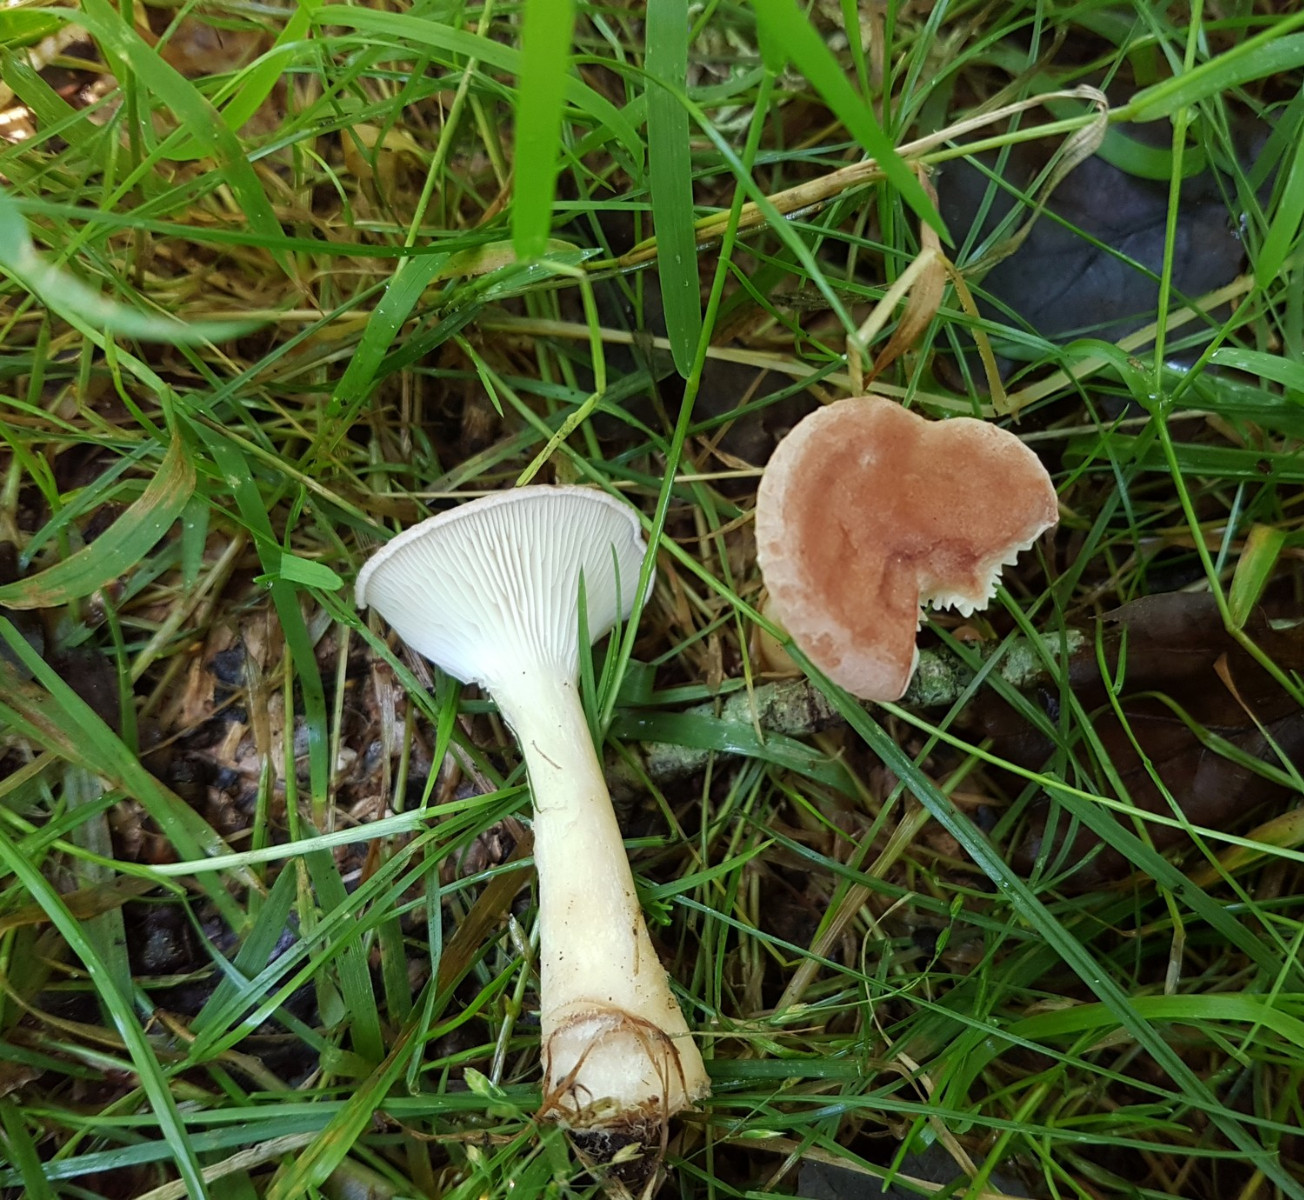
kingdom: Fungi
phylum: Basidiomycota
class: Agaricomycetes
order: Agaricales
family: Tricholomataceae
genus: Infundibulicybe
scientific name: Infundibulicybe gibba
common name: almindelig tragthat
